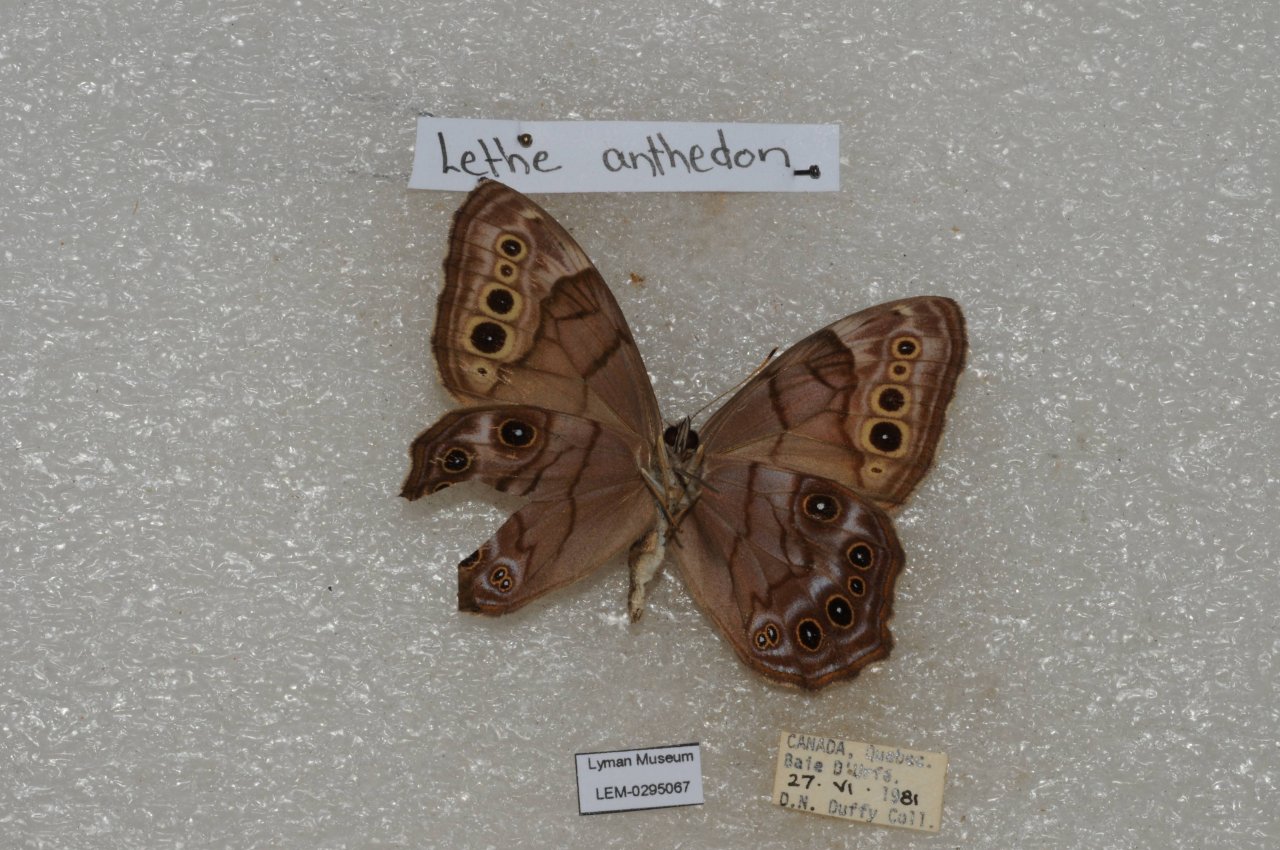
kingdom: Animalia
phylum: Arthropoda
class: Insecta
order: Lepidoptera
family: Nymphalidae
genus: Lethe
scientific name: Lethe anthedon
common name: Northern Pearly-Eye
